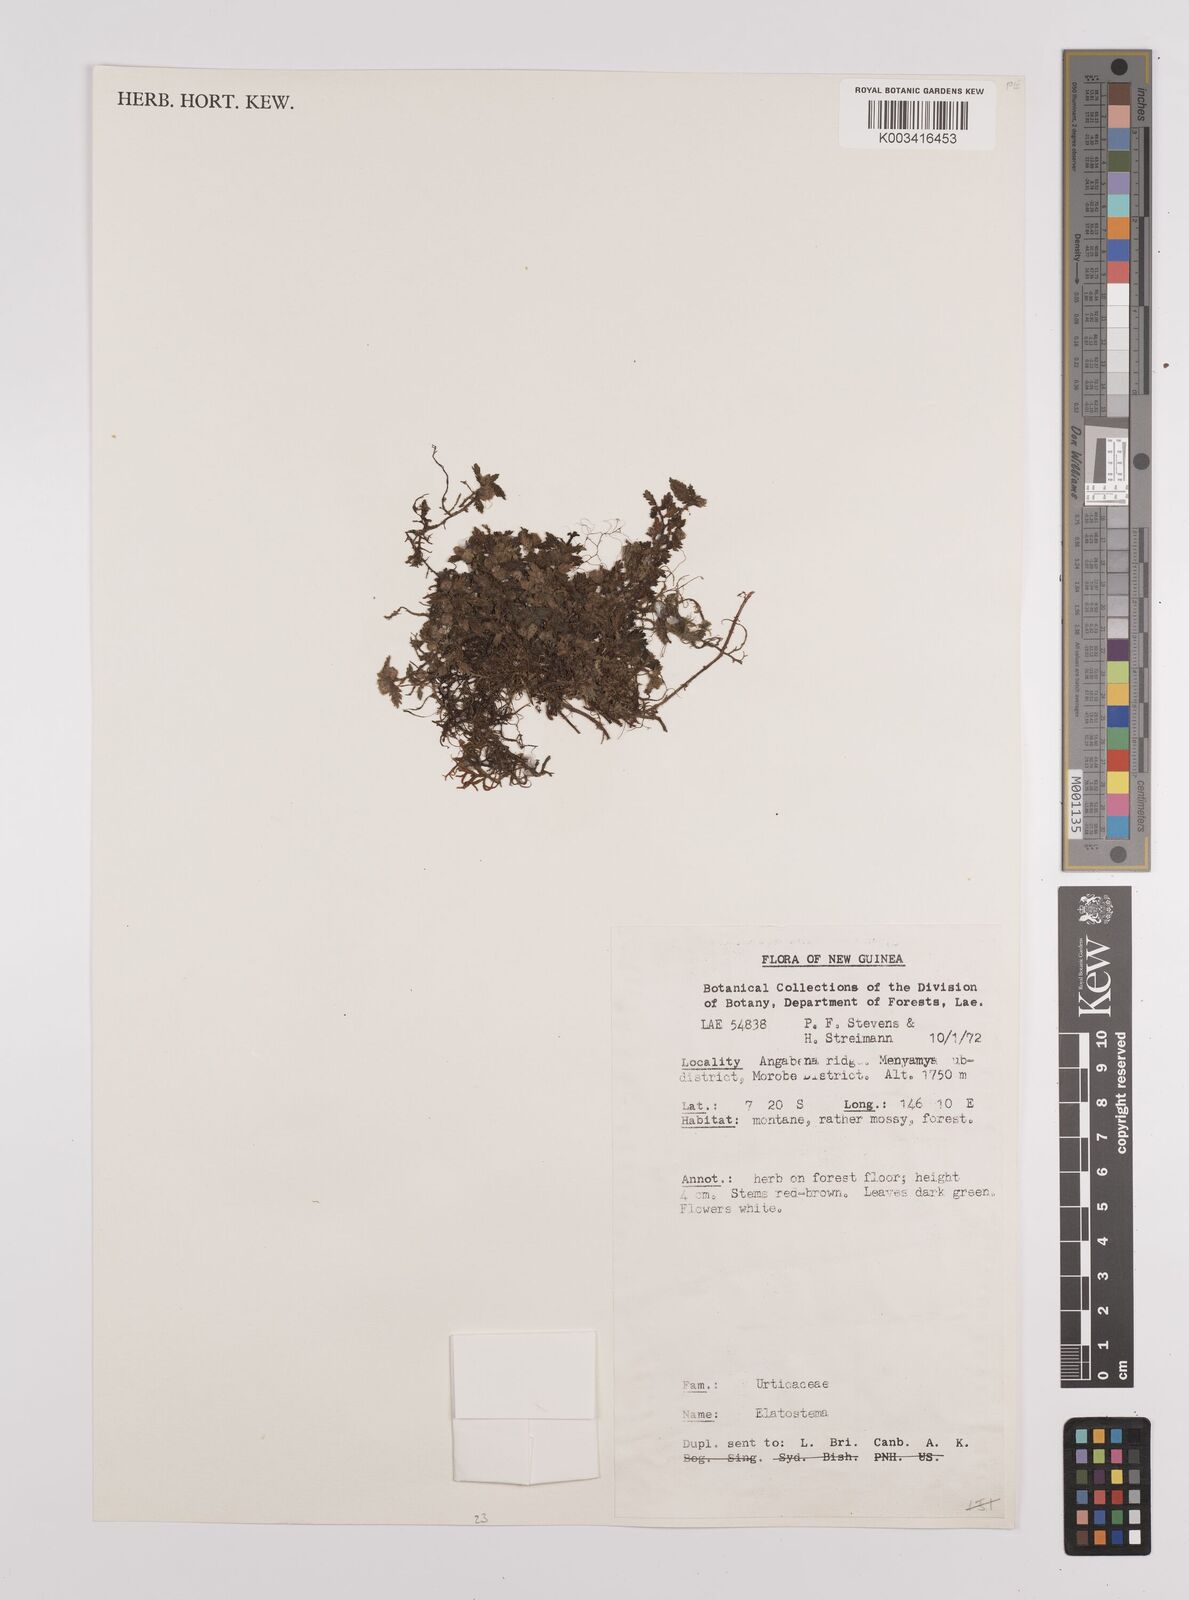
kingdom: Plantae
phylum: Tracheophyta
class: Magnoliopsida
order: Rosales
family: Urticaceae
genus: Elatostema
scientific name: Elatostema
